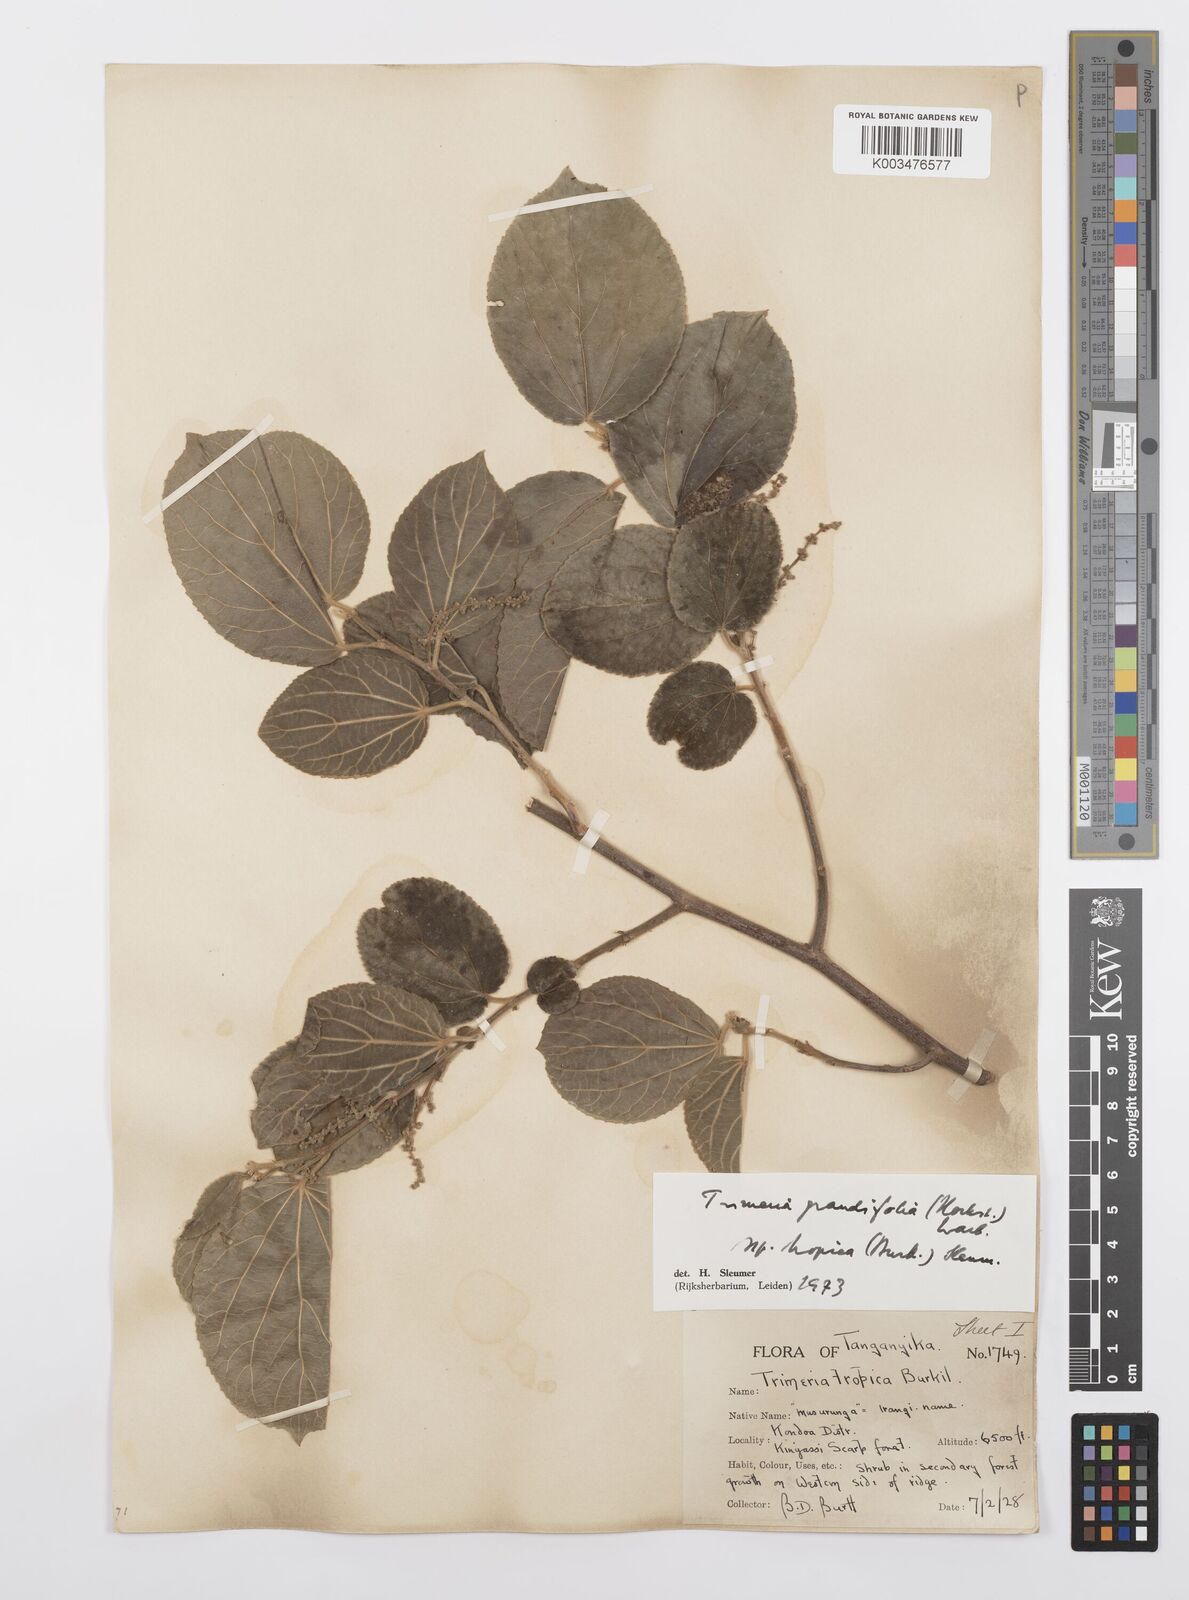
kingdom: Plantae
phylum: Tracheophyta
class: Magnoliopsida
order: Malpighiales
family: Salicaceae
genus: Trimeria
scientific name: Trimeria grandifolia
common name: Wild mulberry
